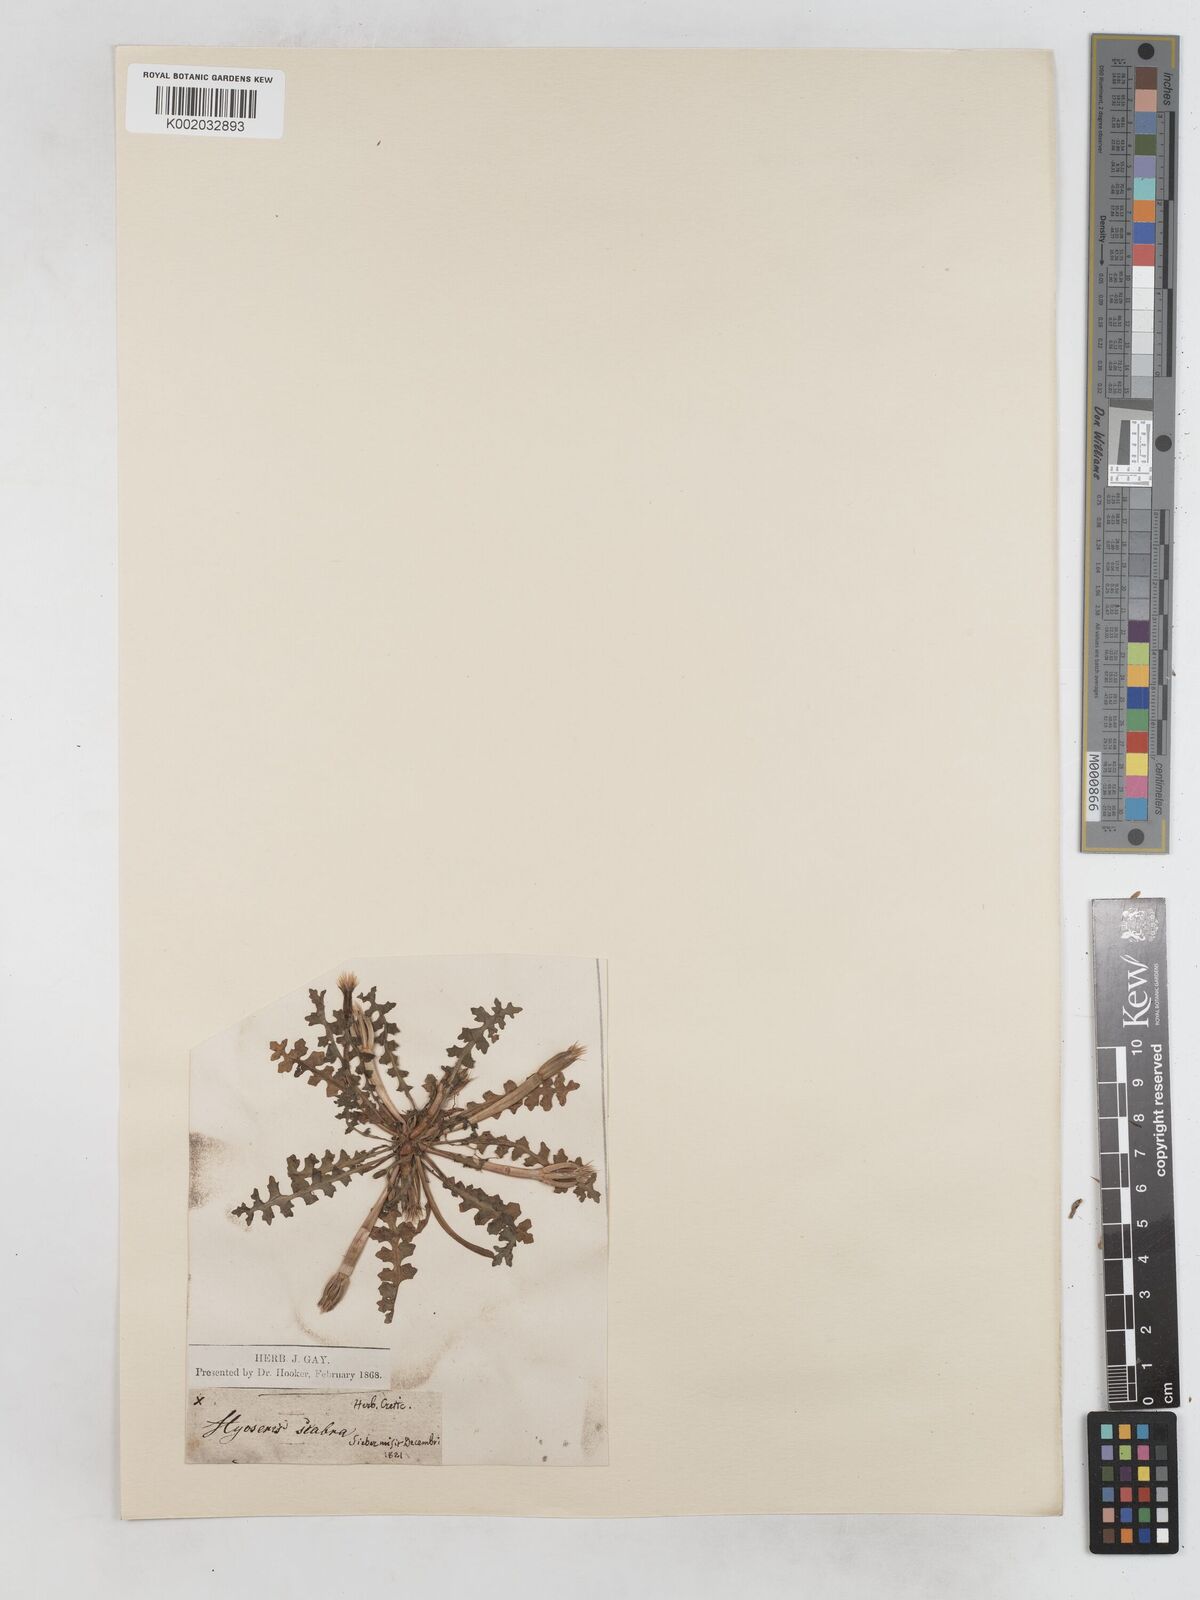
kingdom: Plantae
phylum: Tracheophyta
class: Magnoliopsida
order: Asterales
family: Asteraceae
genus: Hyoseris
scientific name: Hyoseris scabra
